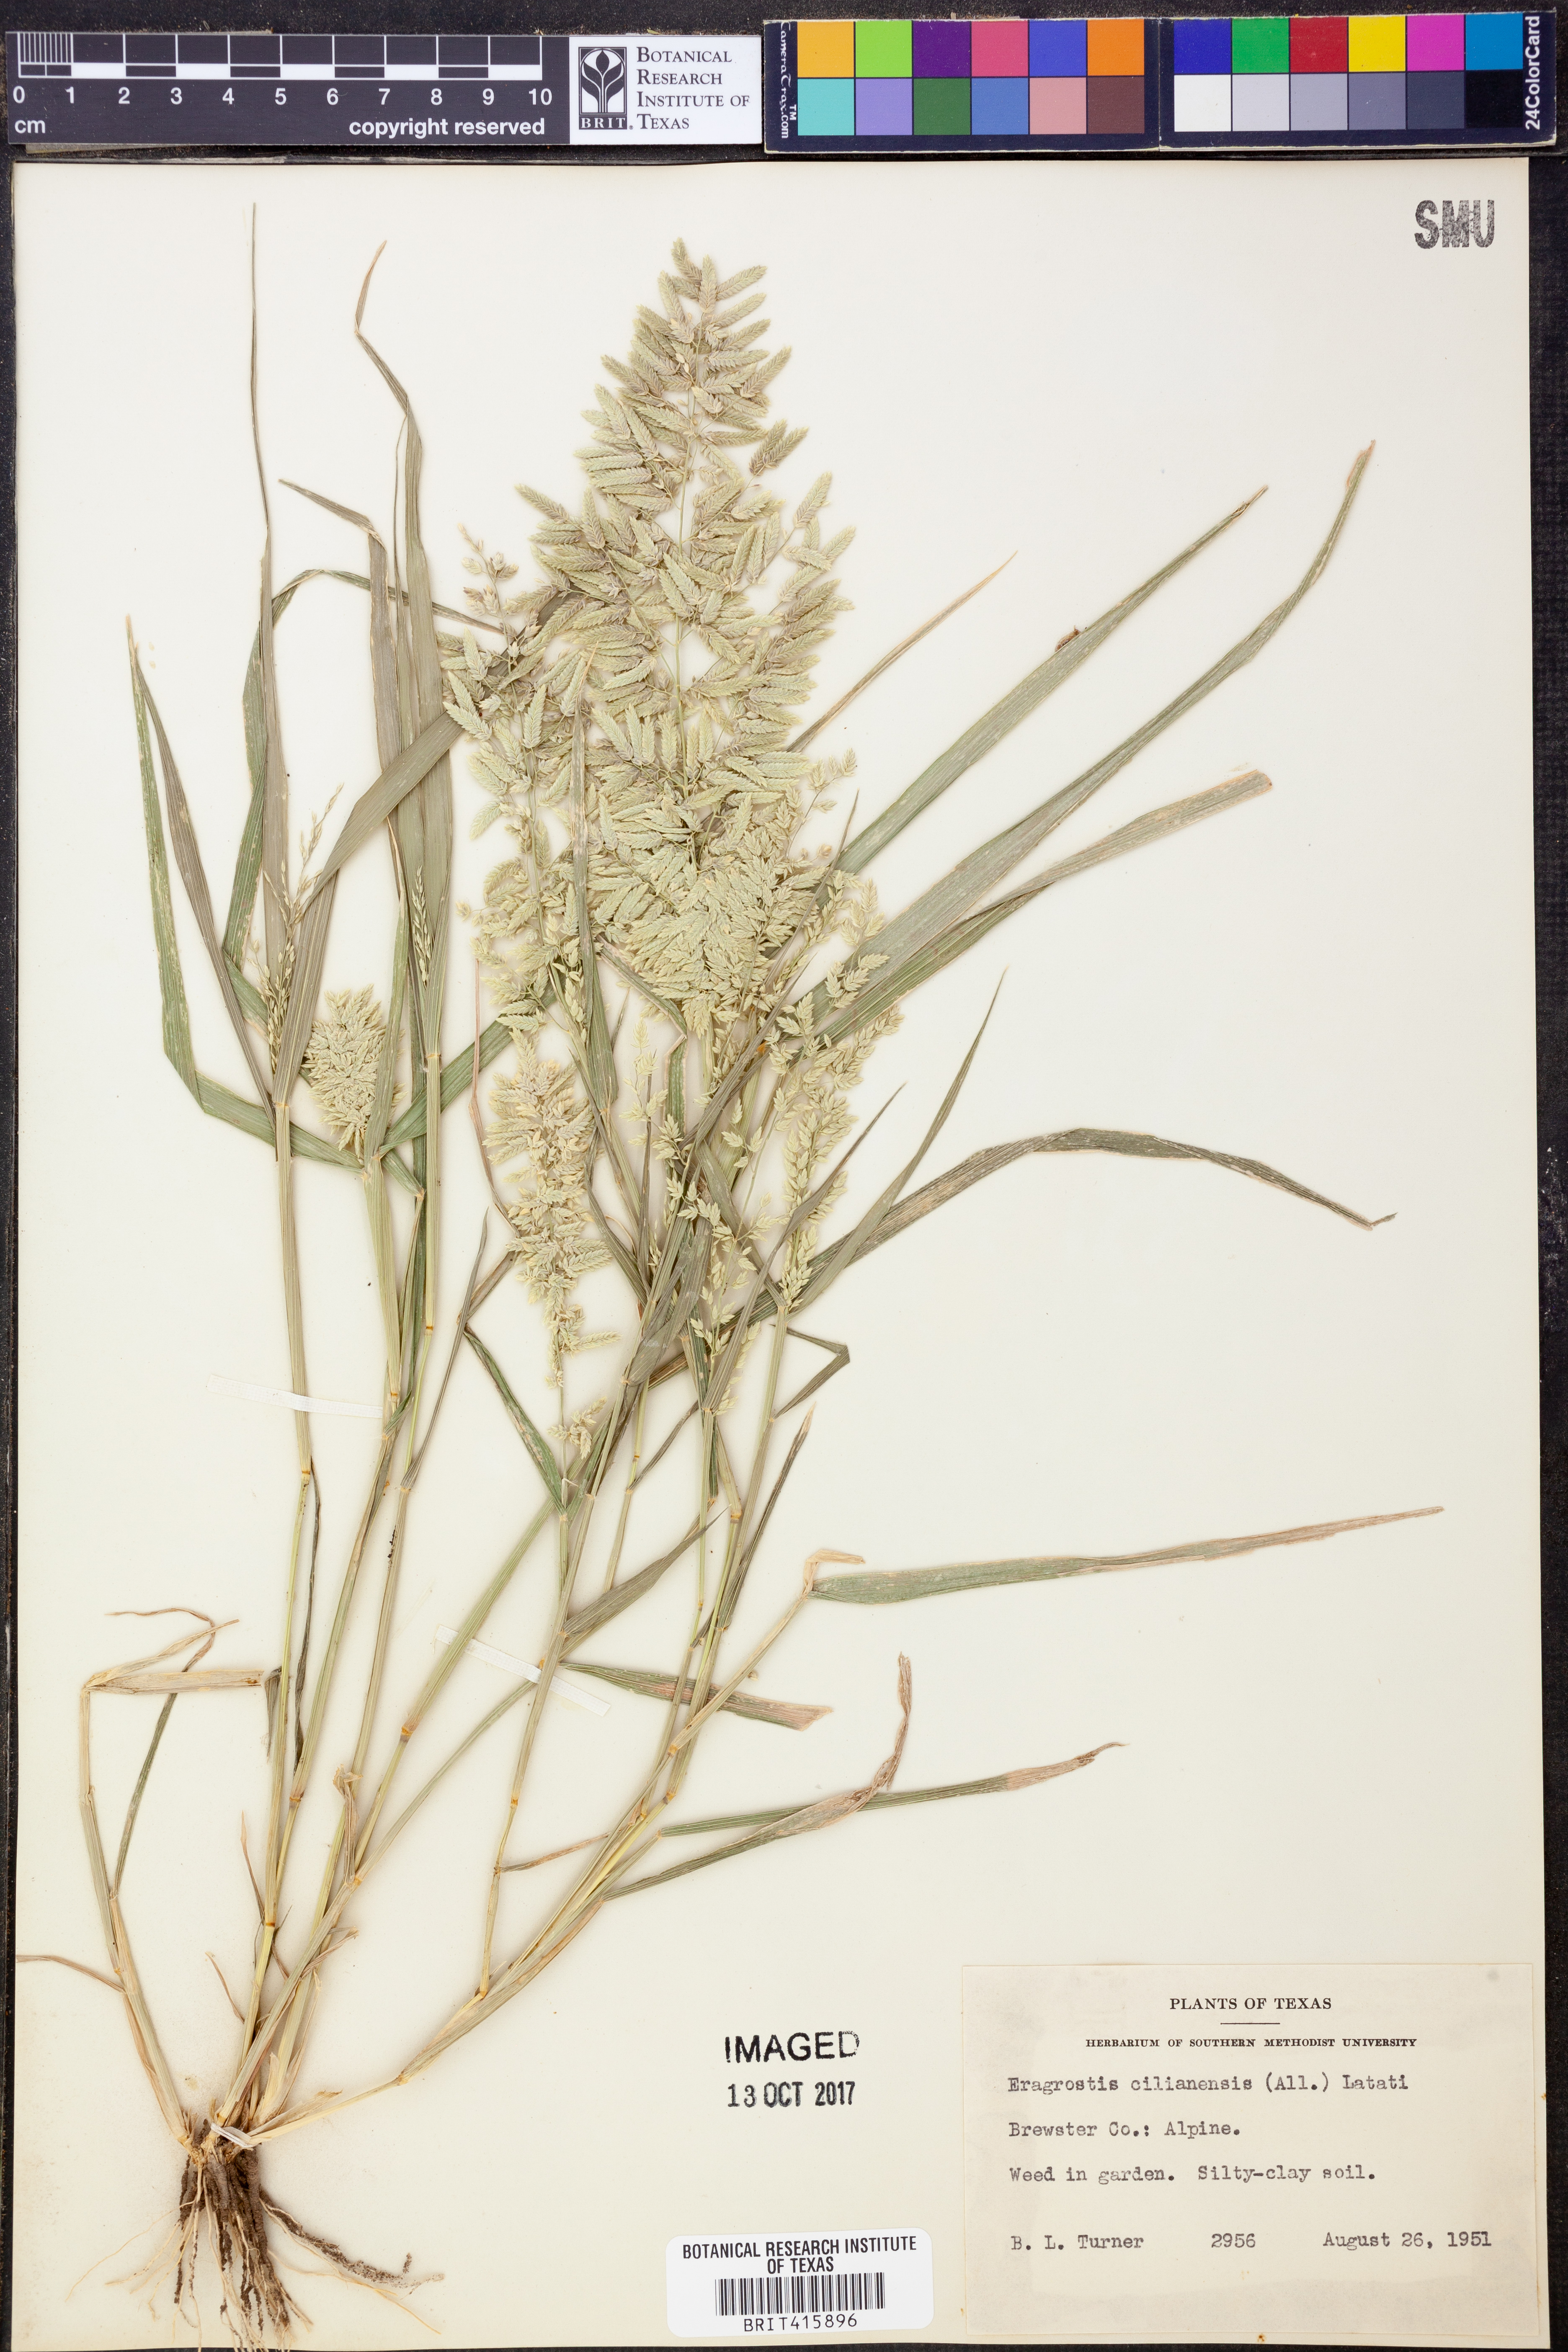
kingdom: Plantae
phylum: Tracheophyta
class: Liliopsida
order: Poales
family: Poaceae
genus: Eragrostis
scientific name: Eragrostis cilianensis
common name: Stinkgrass
